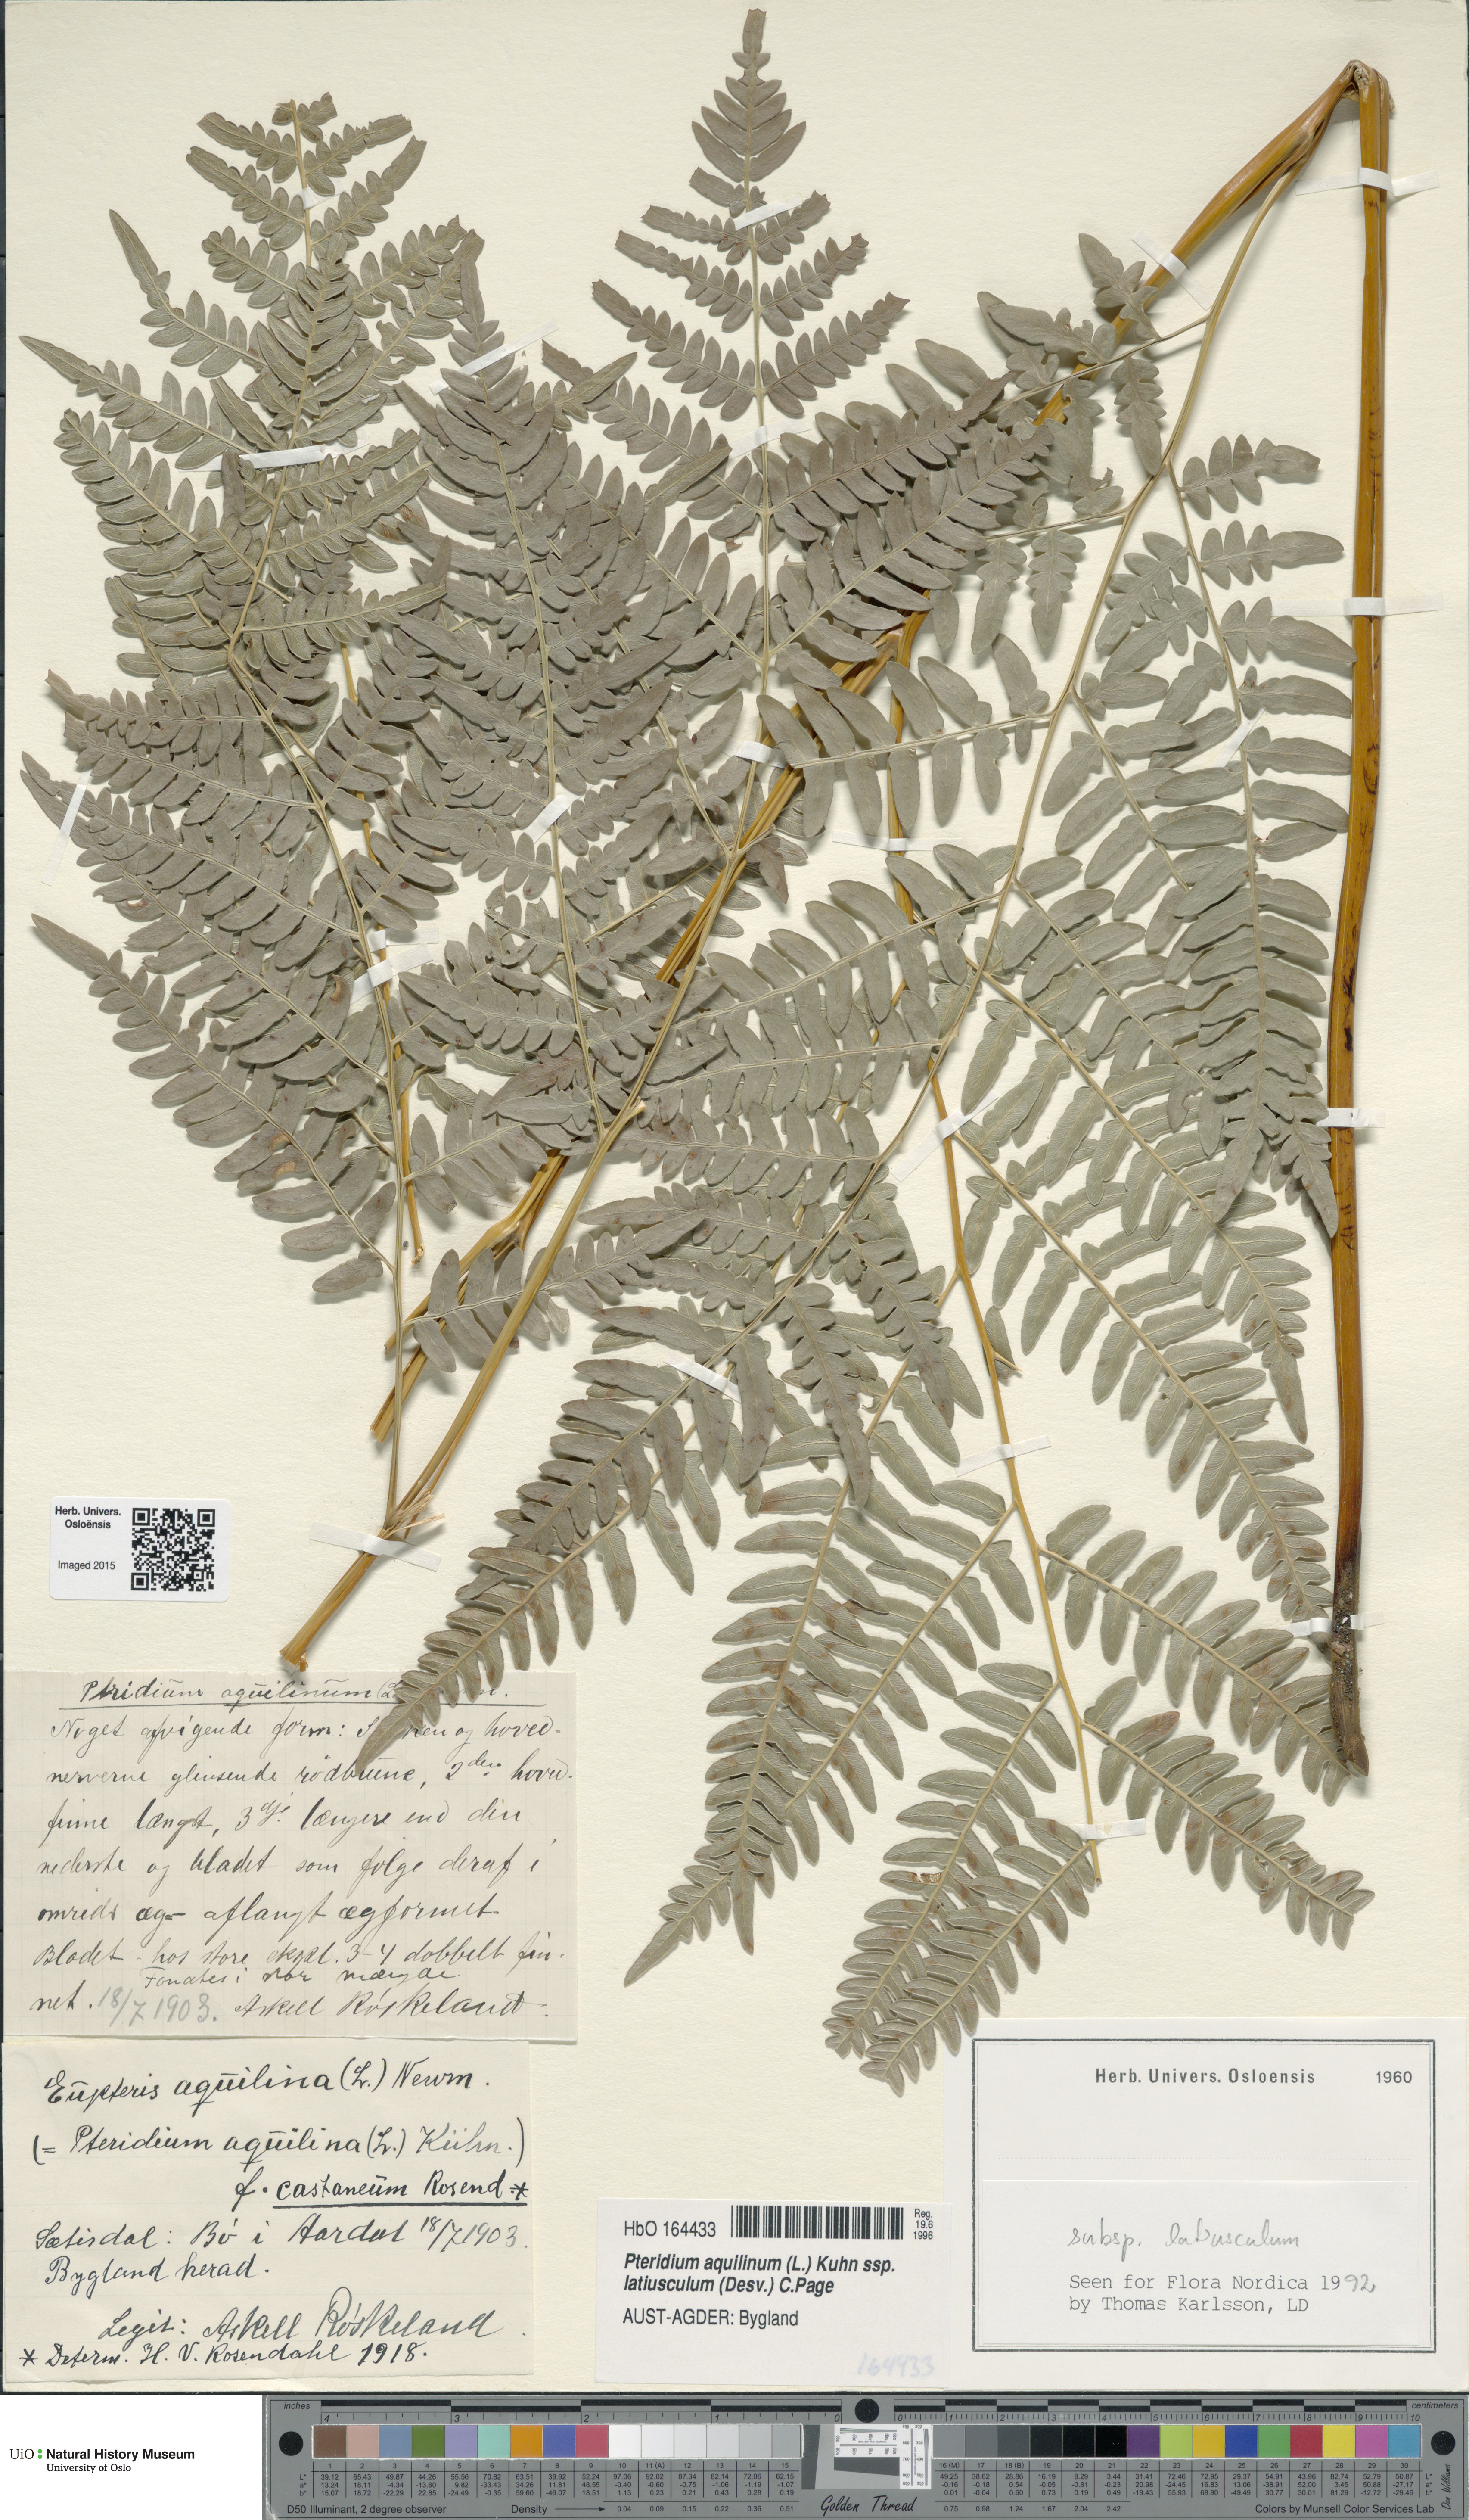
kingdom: Plantae
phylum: Tracheophyta
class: Polypodiopsida
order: Polypodiales
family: Dennstaedtiaceae
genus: Pteridium
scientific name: Pteridium aquilinum
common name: Bracken
